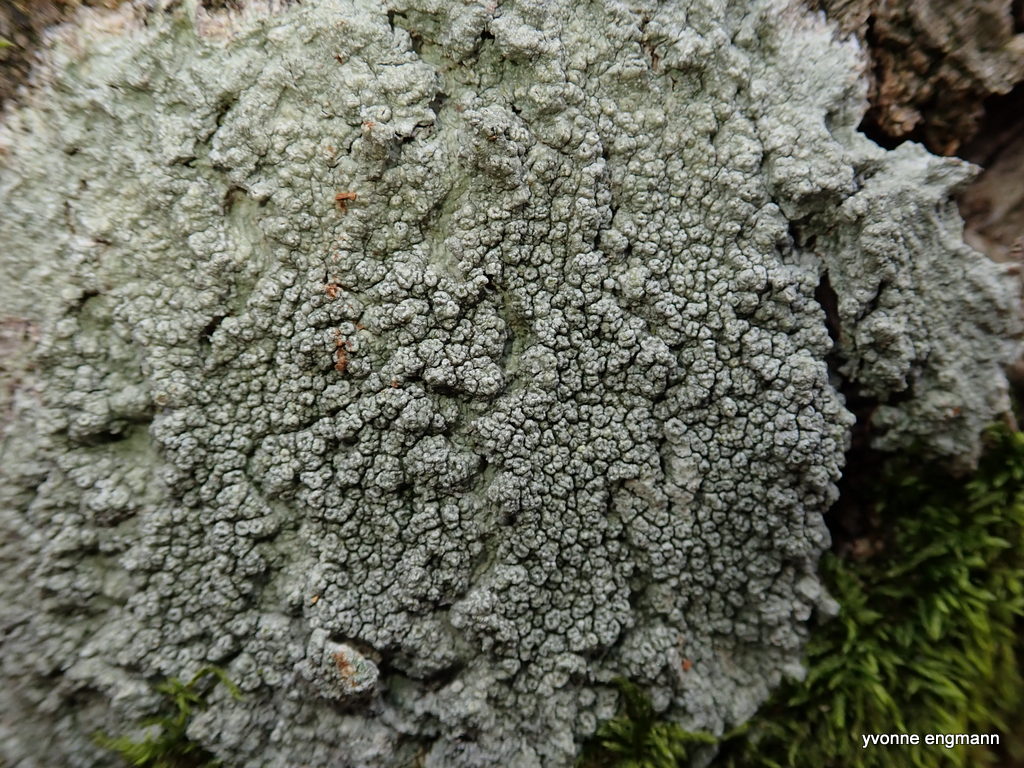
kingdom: Fungi
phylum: Ascomycota
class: Lecanoromycetes
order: Pertusariales
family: Pertusariaceae
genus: Pertusaria
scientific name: Pertusaria hymenea
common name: åben prikvortelav
